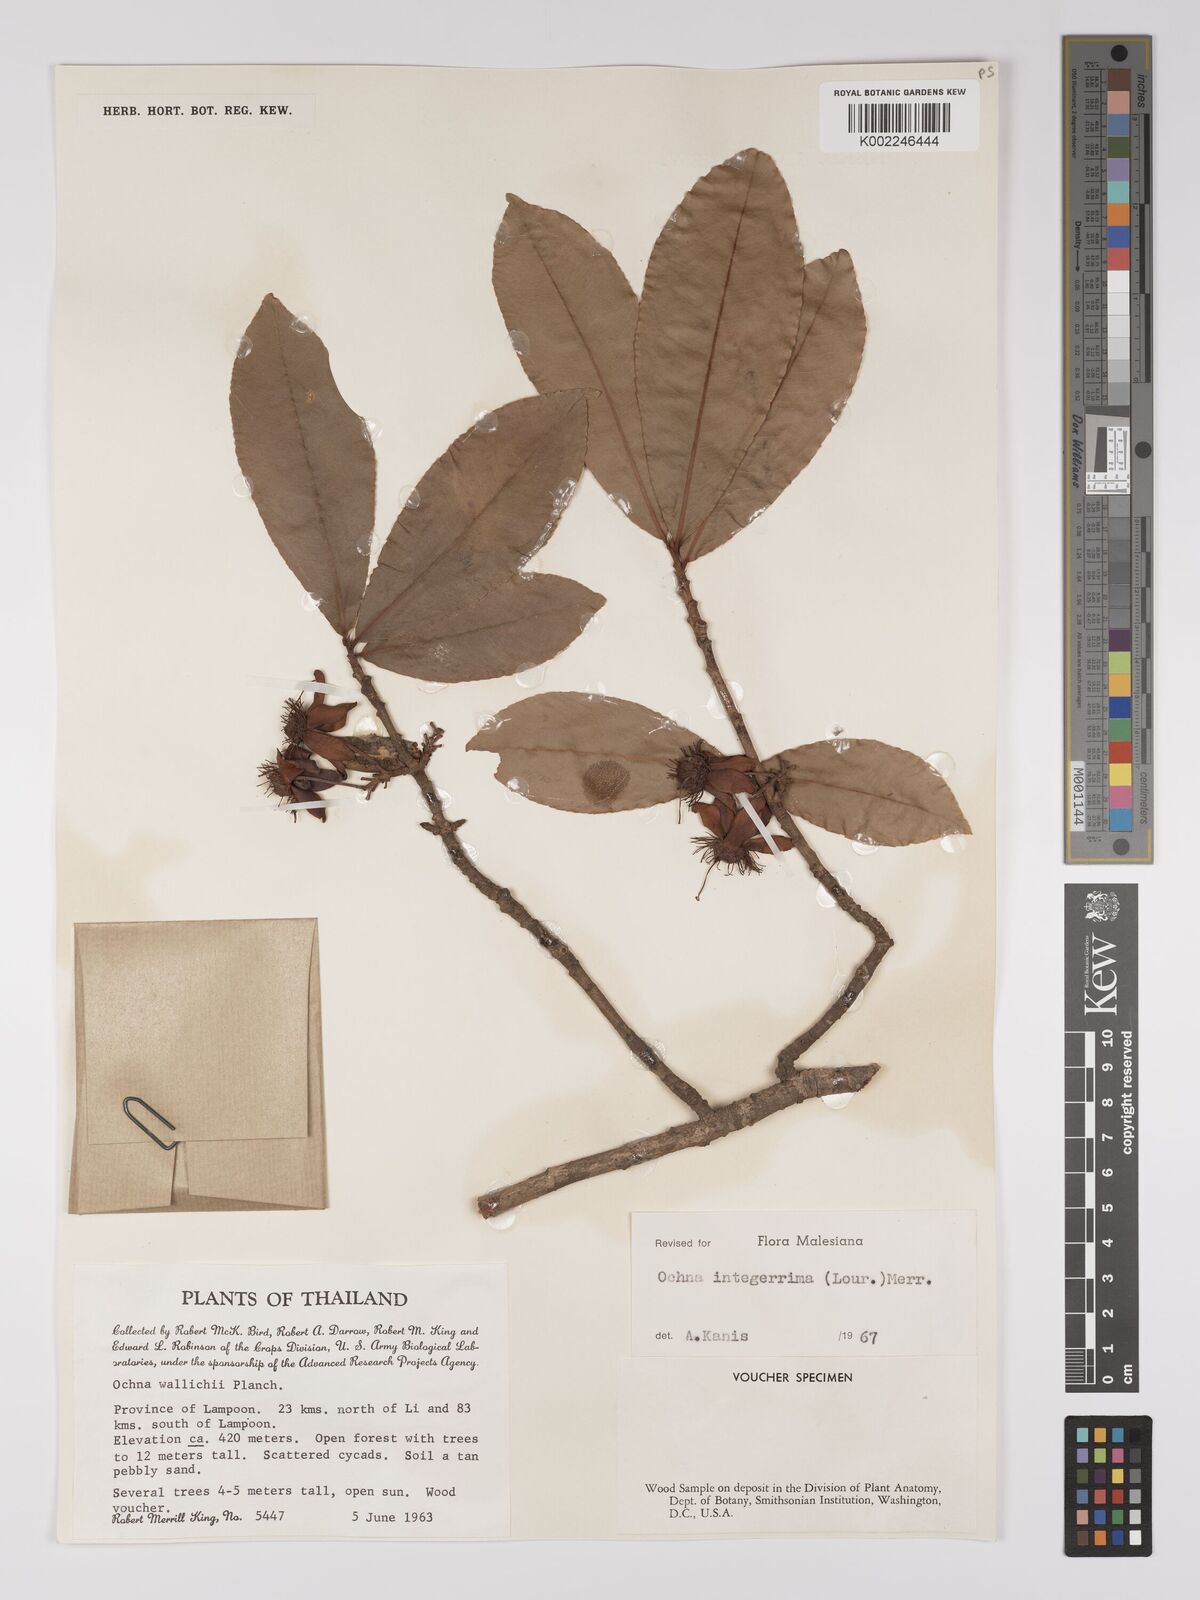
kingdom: Plantae
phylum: Tracheophyta
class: Magnoliopsida
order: Malpighiales
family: Ochnaceae
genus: Ochna
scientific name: Ochna integerrima
